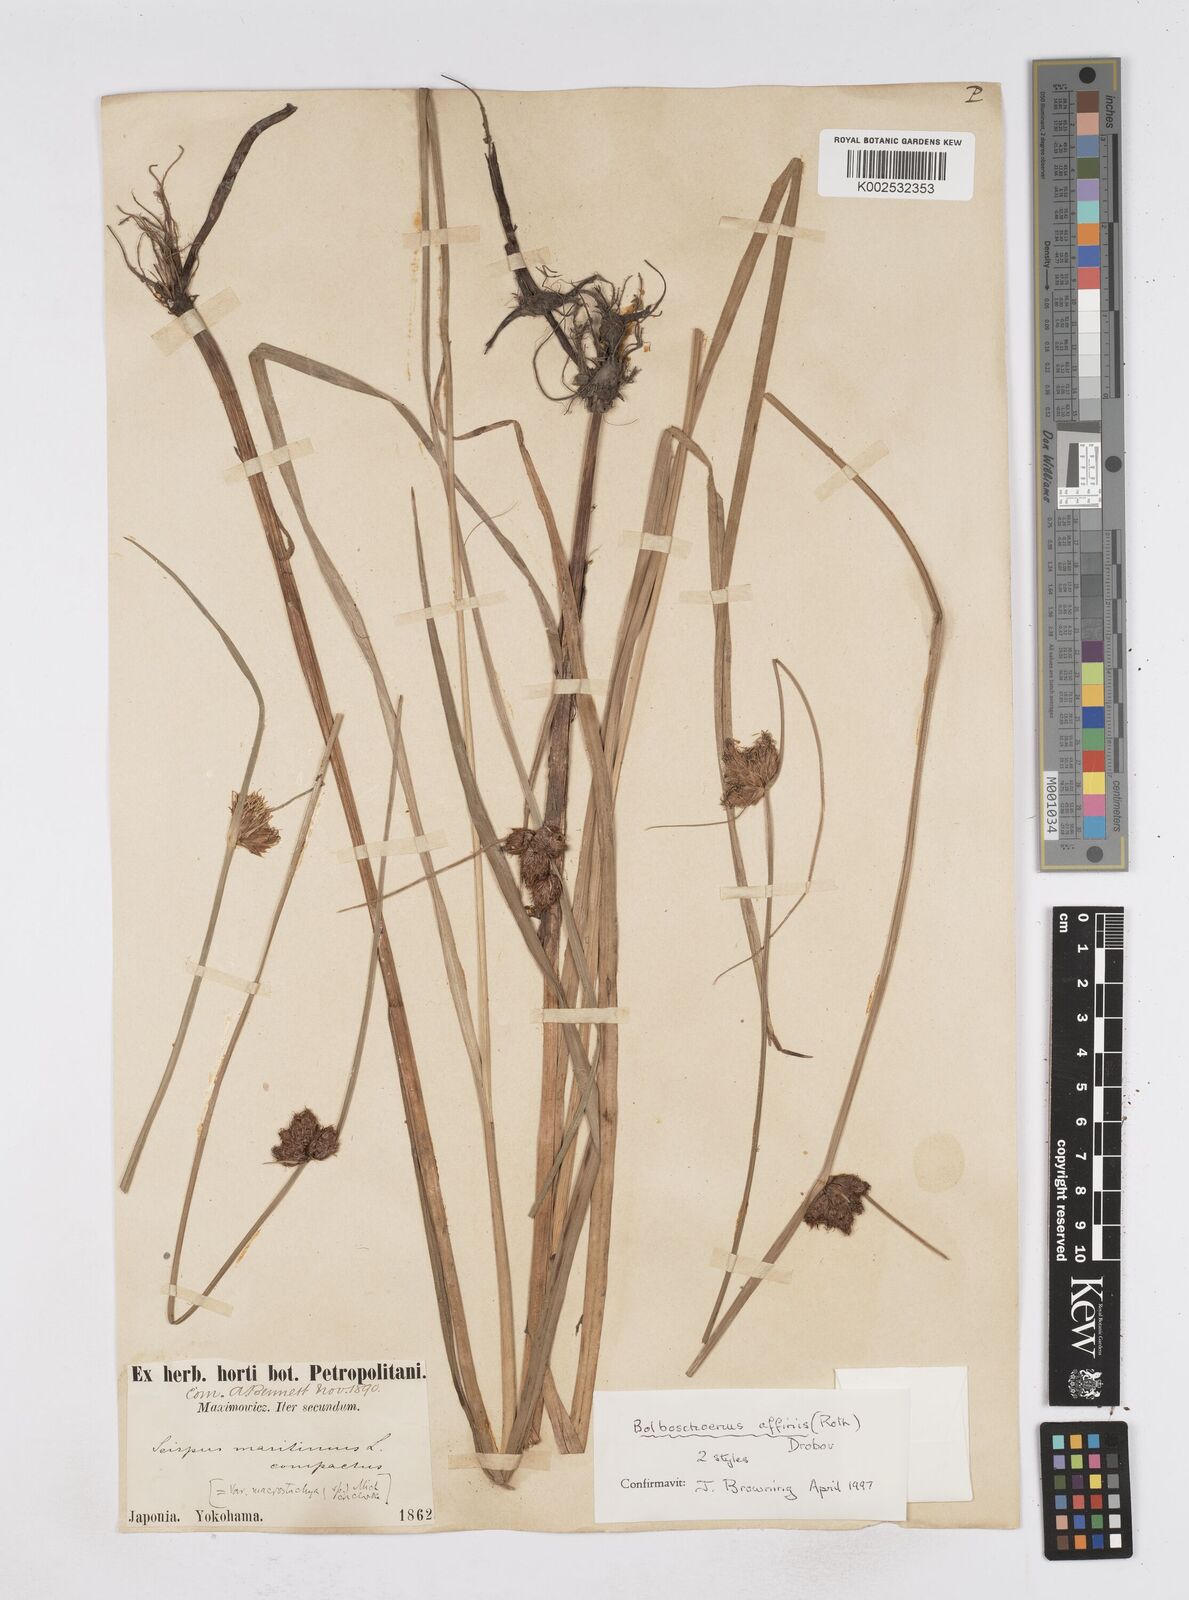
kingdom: Plantae
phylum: Tracheophyta
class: Liliopsida
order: Poales
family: Cyperaceae
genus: Bolboschoenus
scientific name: Bolboschoenus maritimus
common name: Sea club-rush
